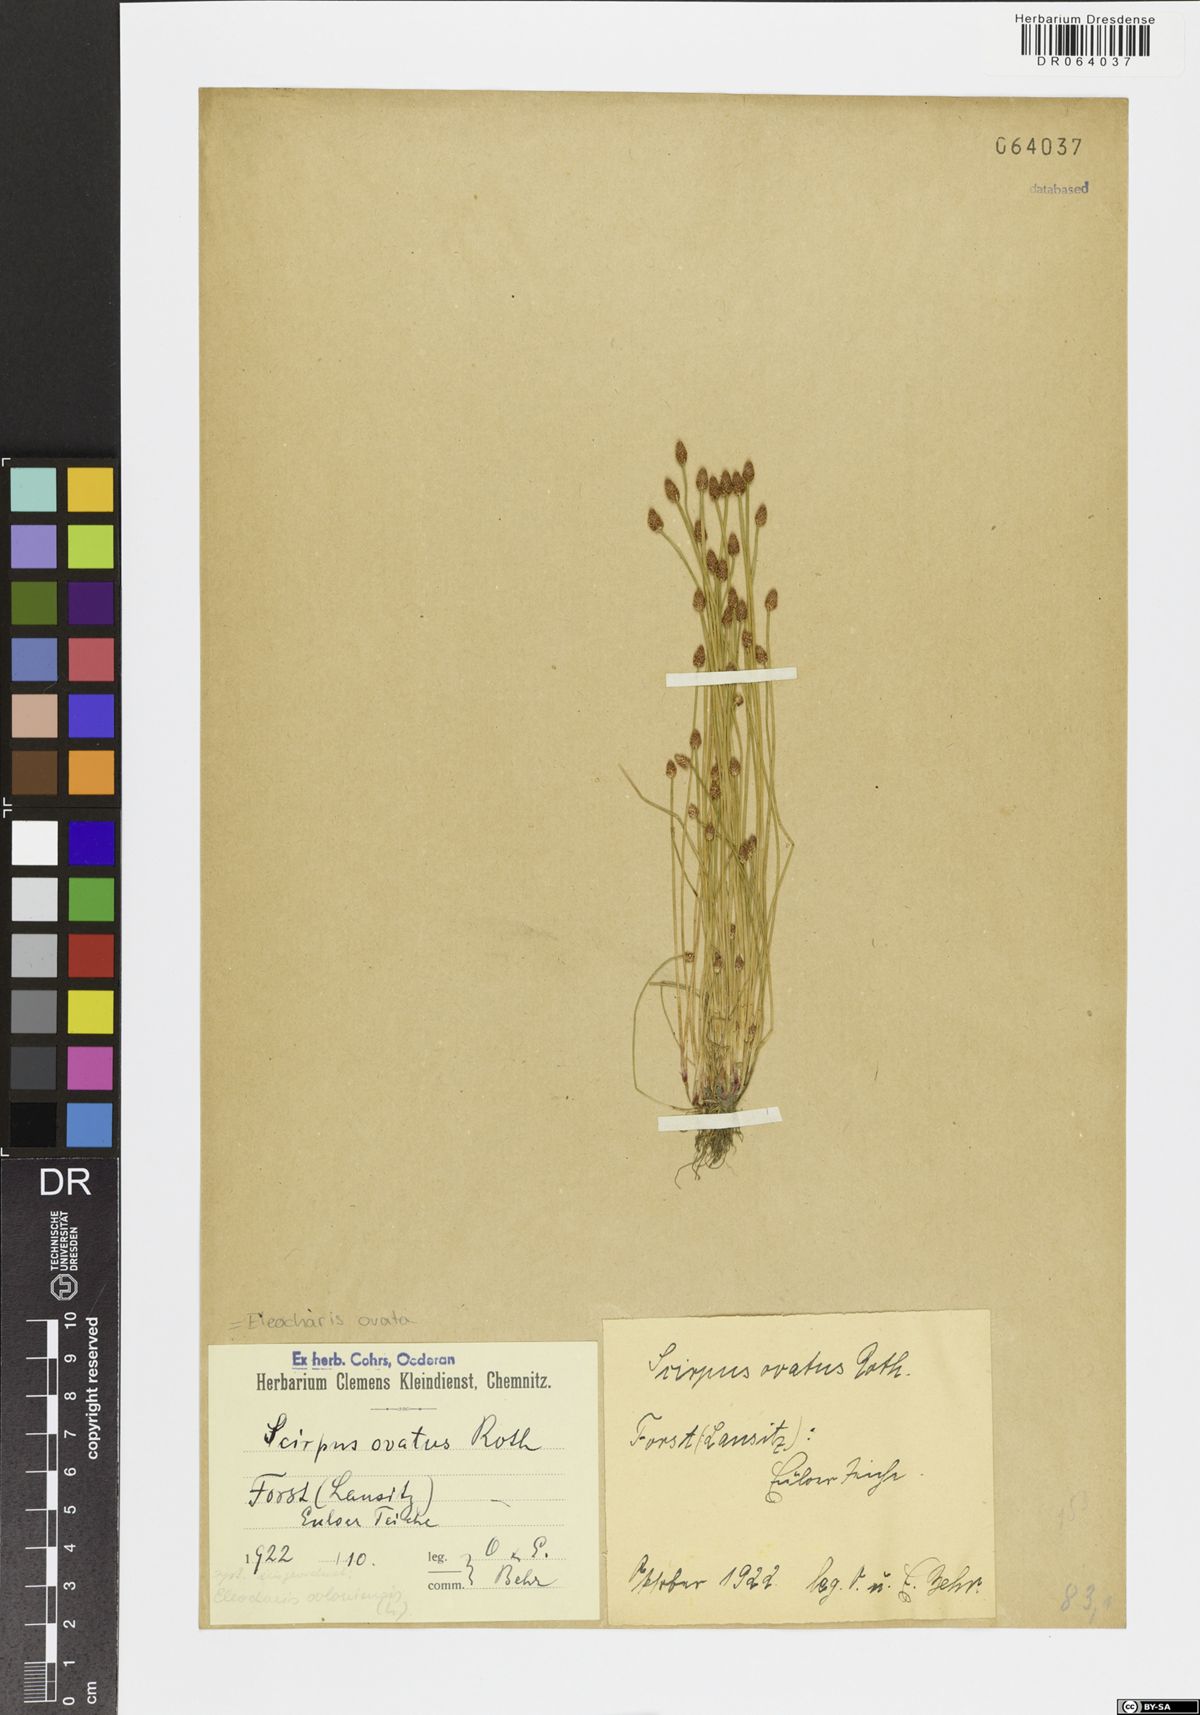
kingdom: Plantae
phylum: Tracheophyta
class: Liliopsida
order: Poales
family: Cyperaceae
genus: Eleocharis
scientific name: Eleocharis ovata
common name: Oval spike-rush
